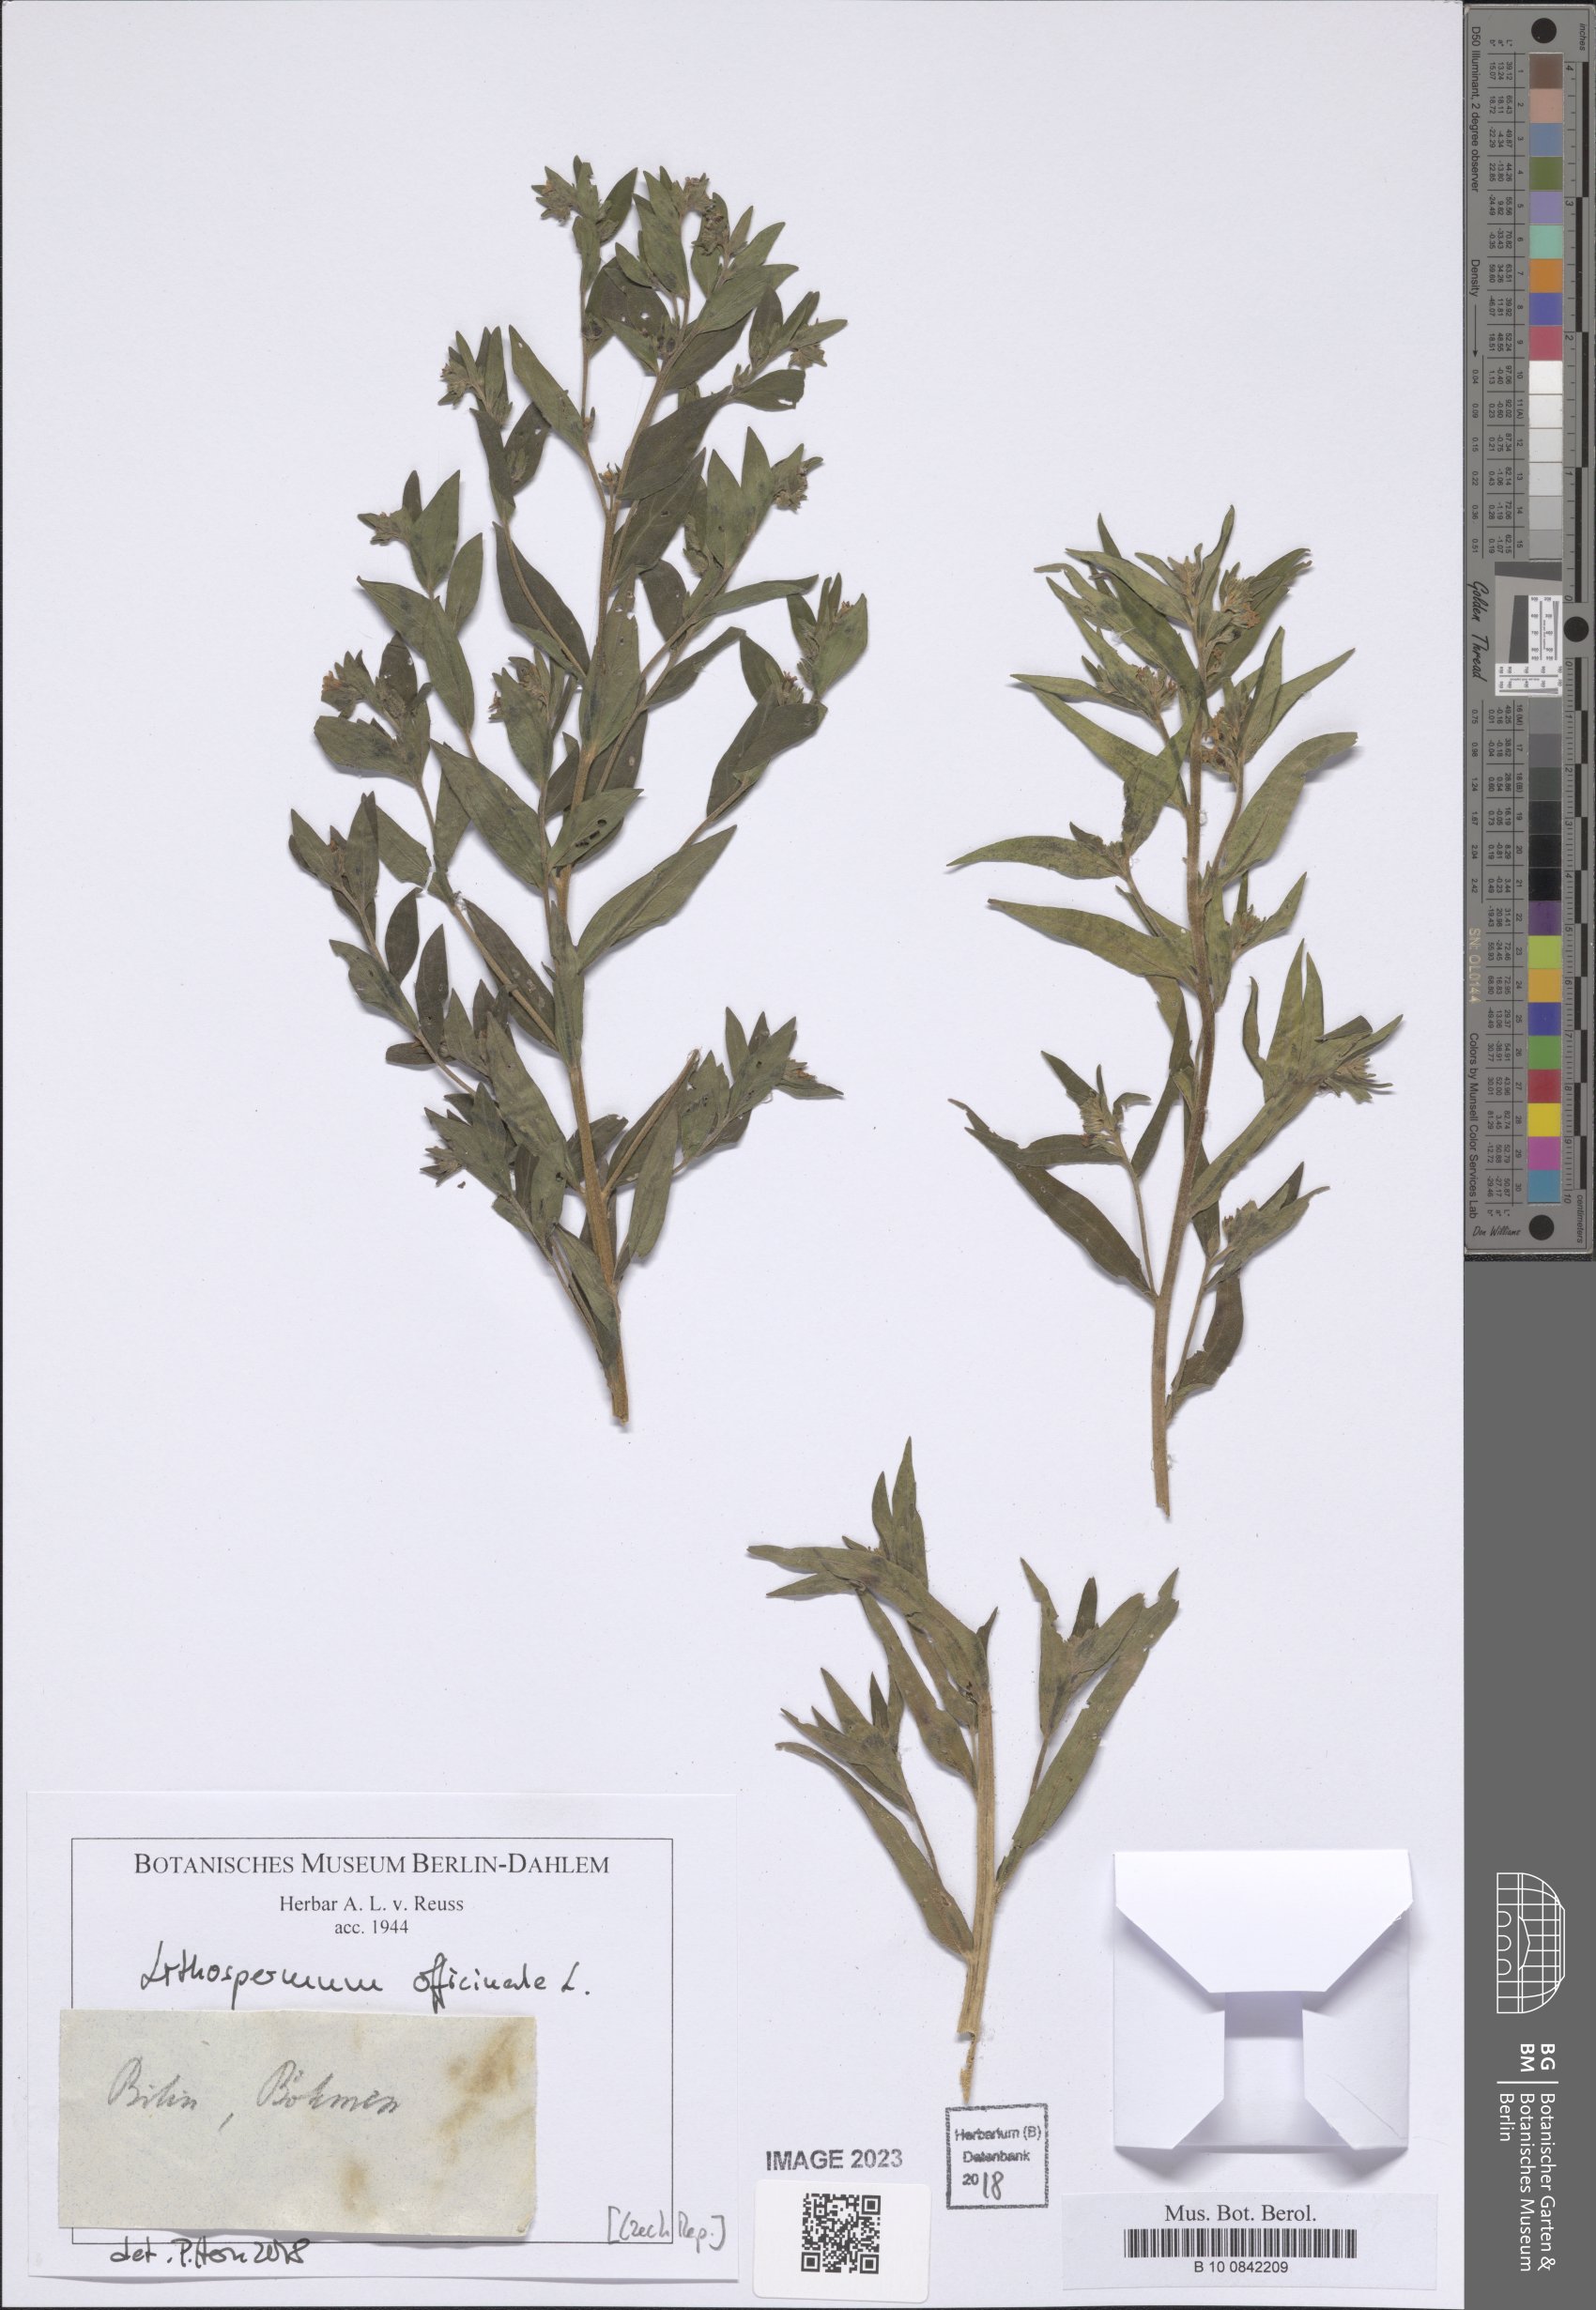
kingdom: Plantae
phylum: Tracheophyta
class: Magnoliopsida
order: Boraginales
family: Boraginaceae
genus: Lithospermum
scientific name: Lithospermum officinale
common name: Common gromwell
